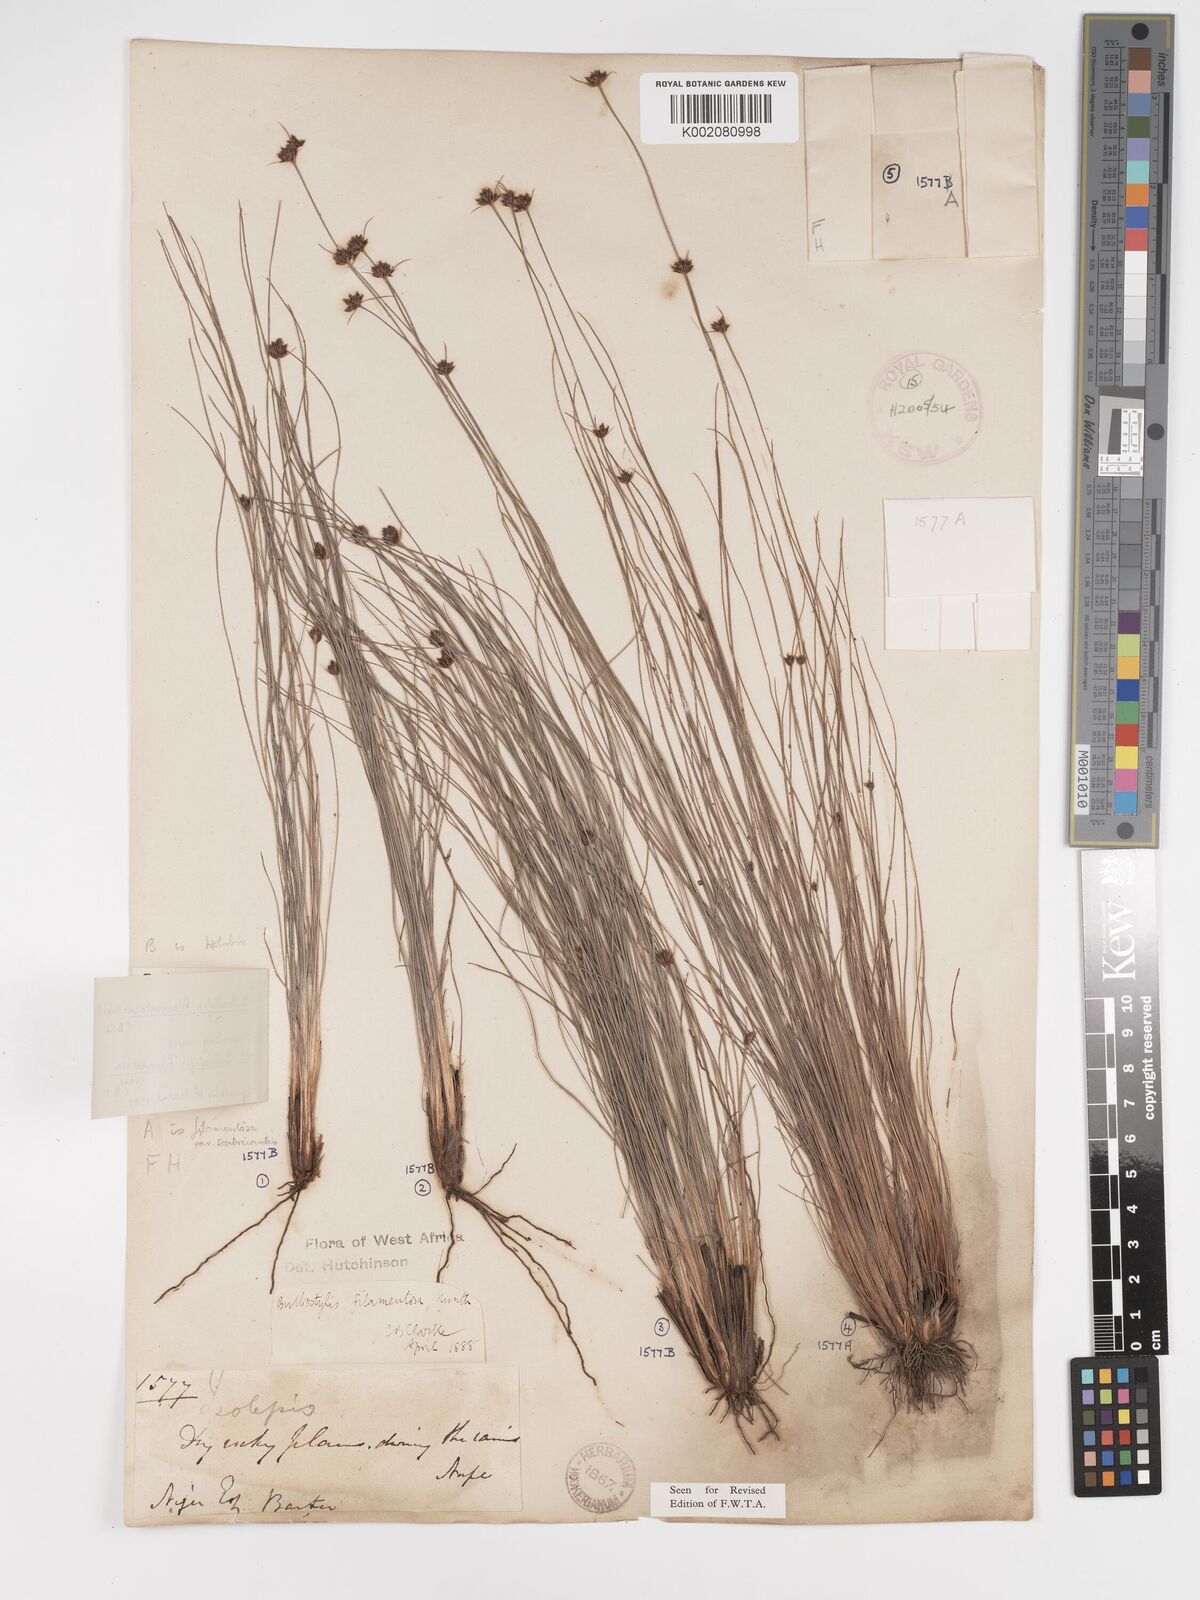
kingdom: Plantae
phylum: Tracheophyta
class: Liliopsida
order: Poales
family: Cyperaceae
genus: Bulbostylis
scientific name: Bulbostylis filamentosa
